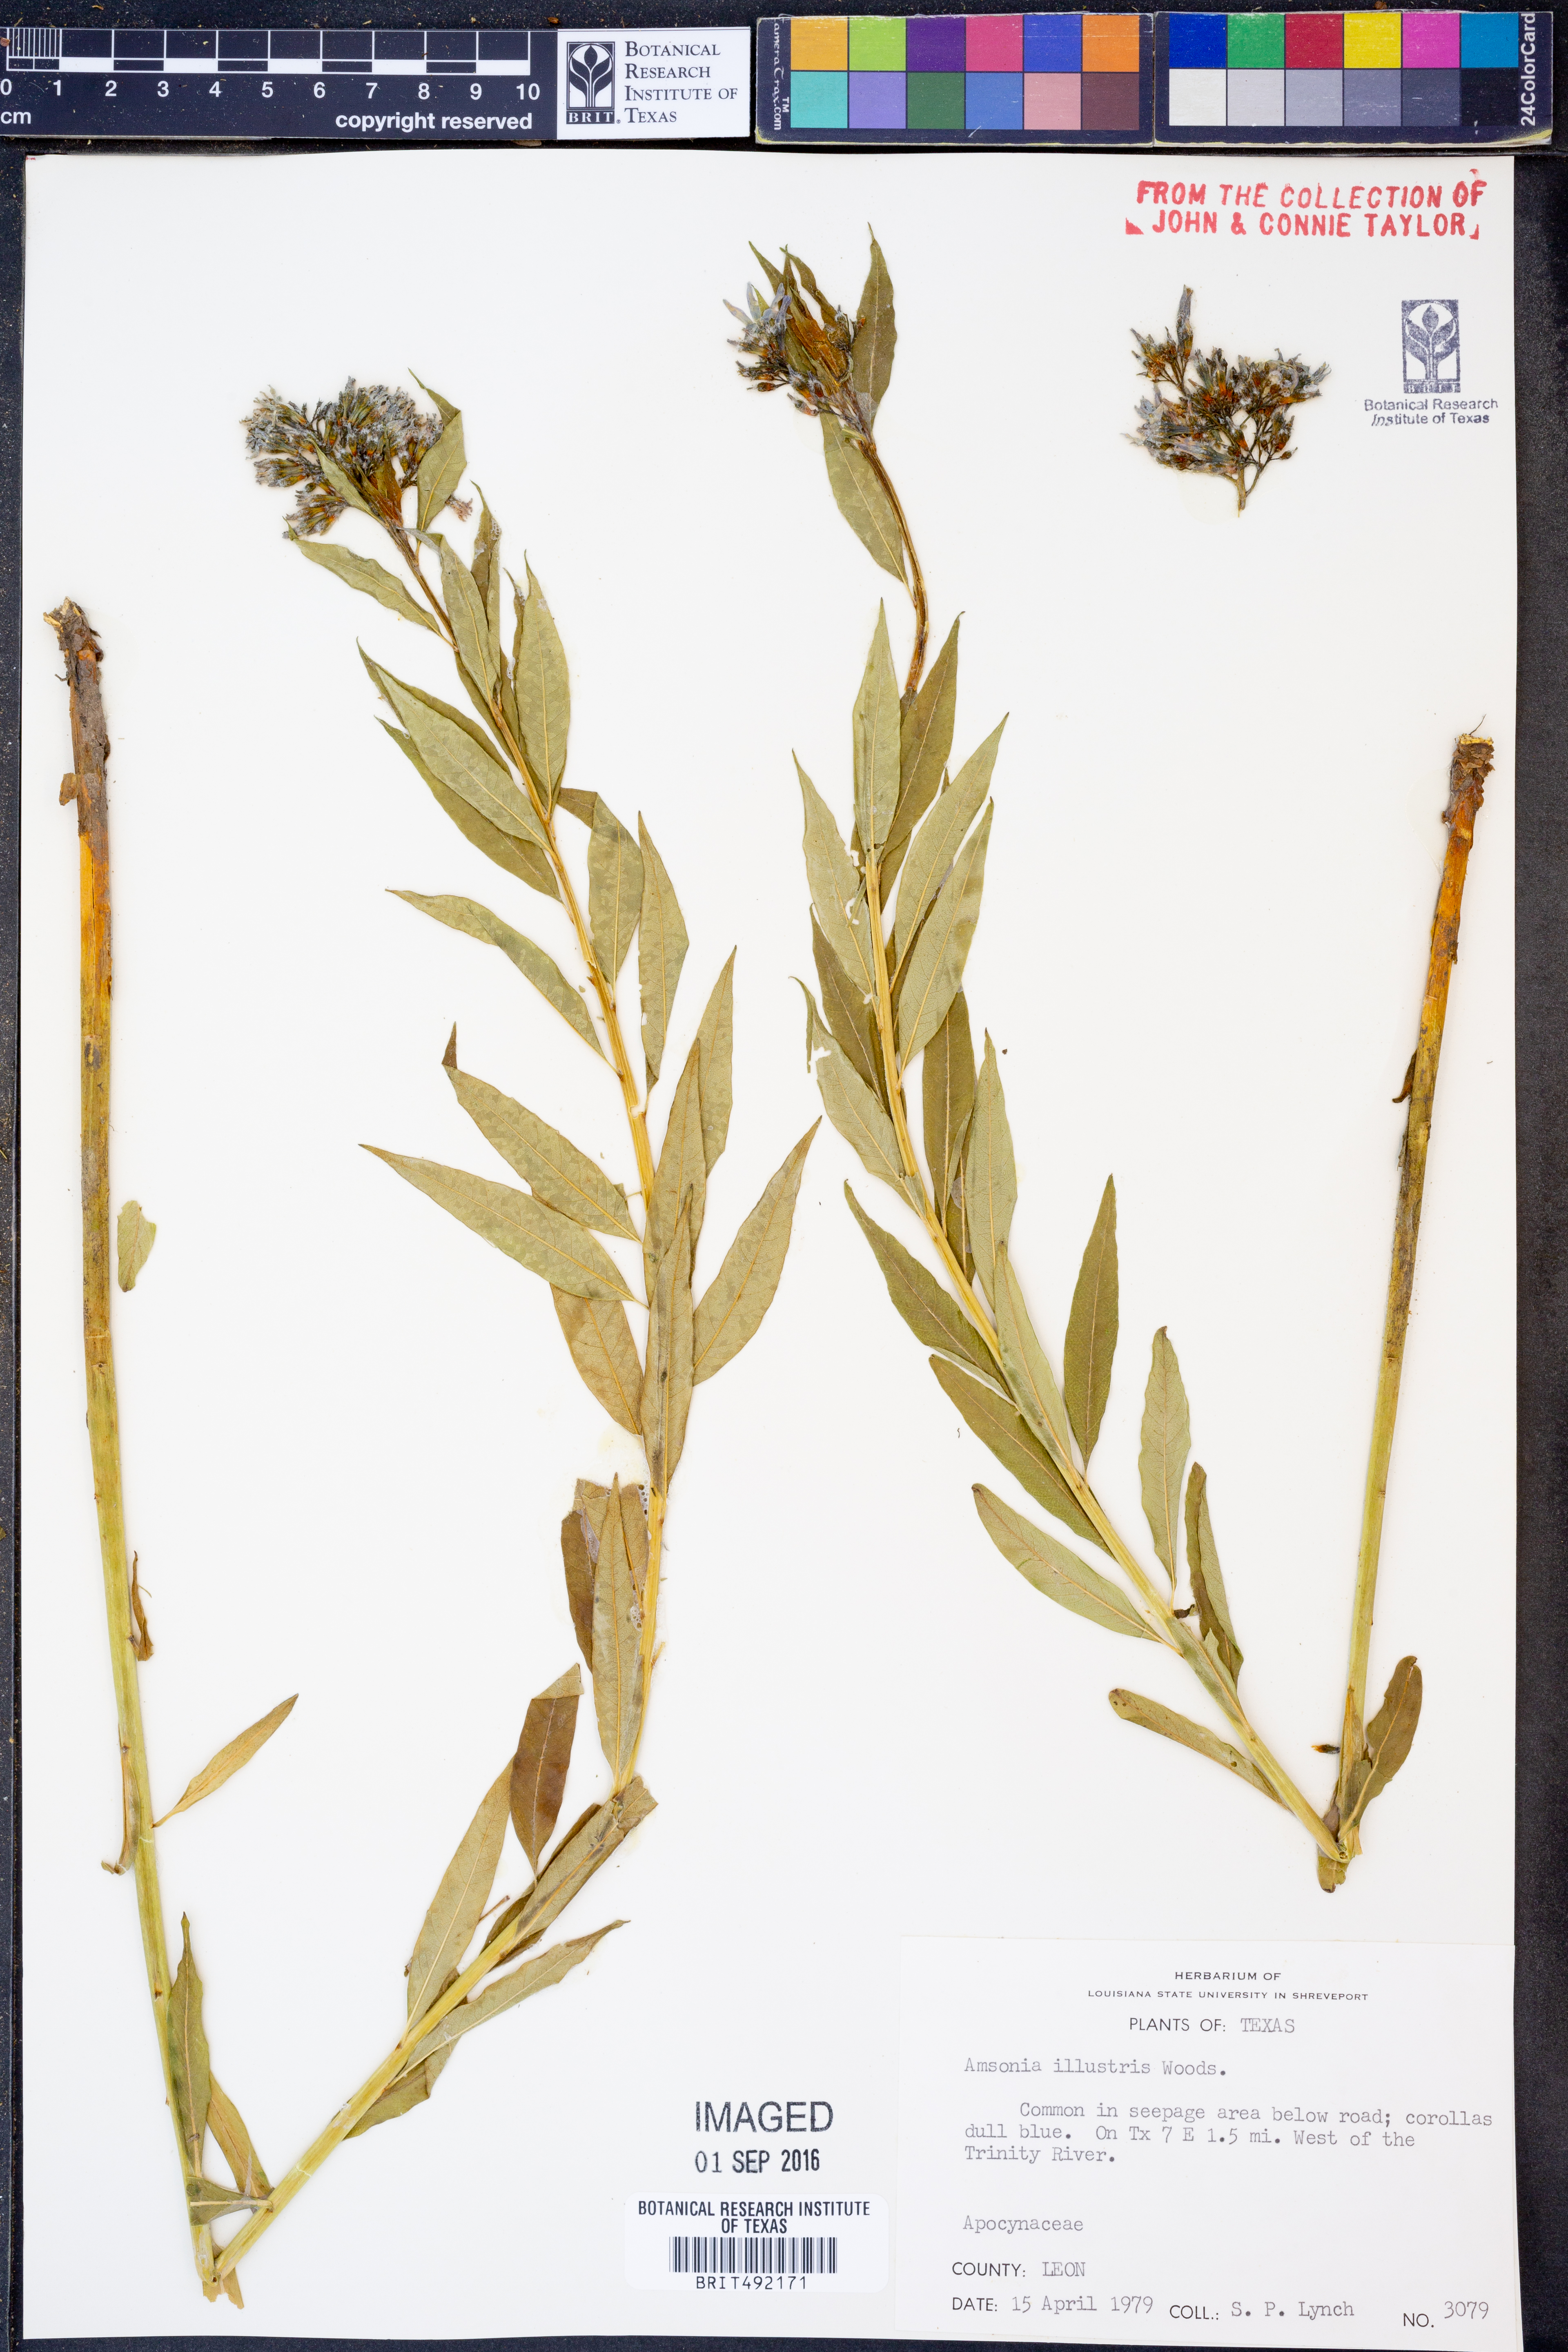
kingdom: Plantae
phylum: Tracheophyta
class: Magnoliopsida
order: Gentianales
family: Apocynaceae
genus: Amsonia
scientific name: Amsonia tabernaemontana
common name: Texas-star
